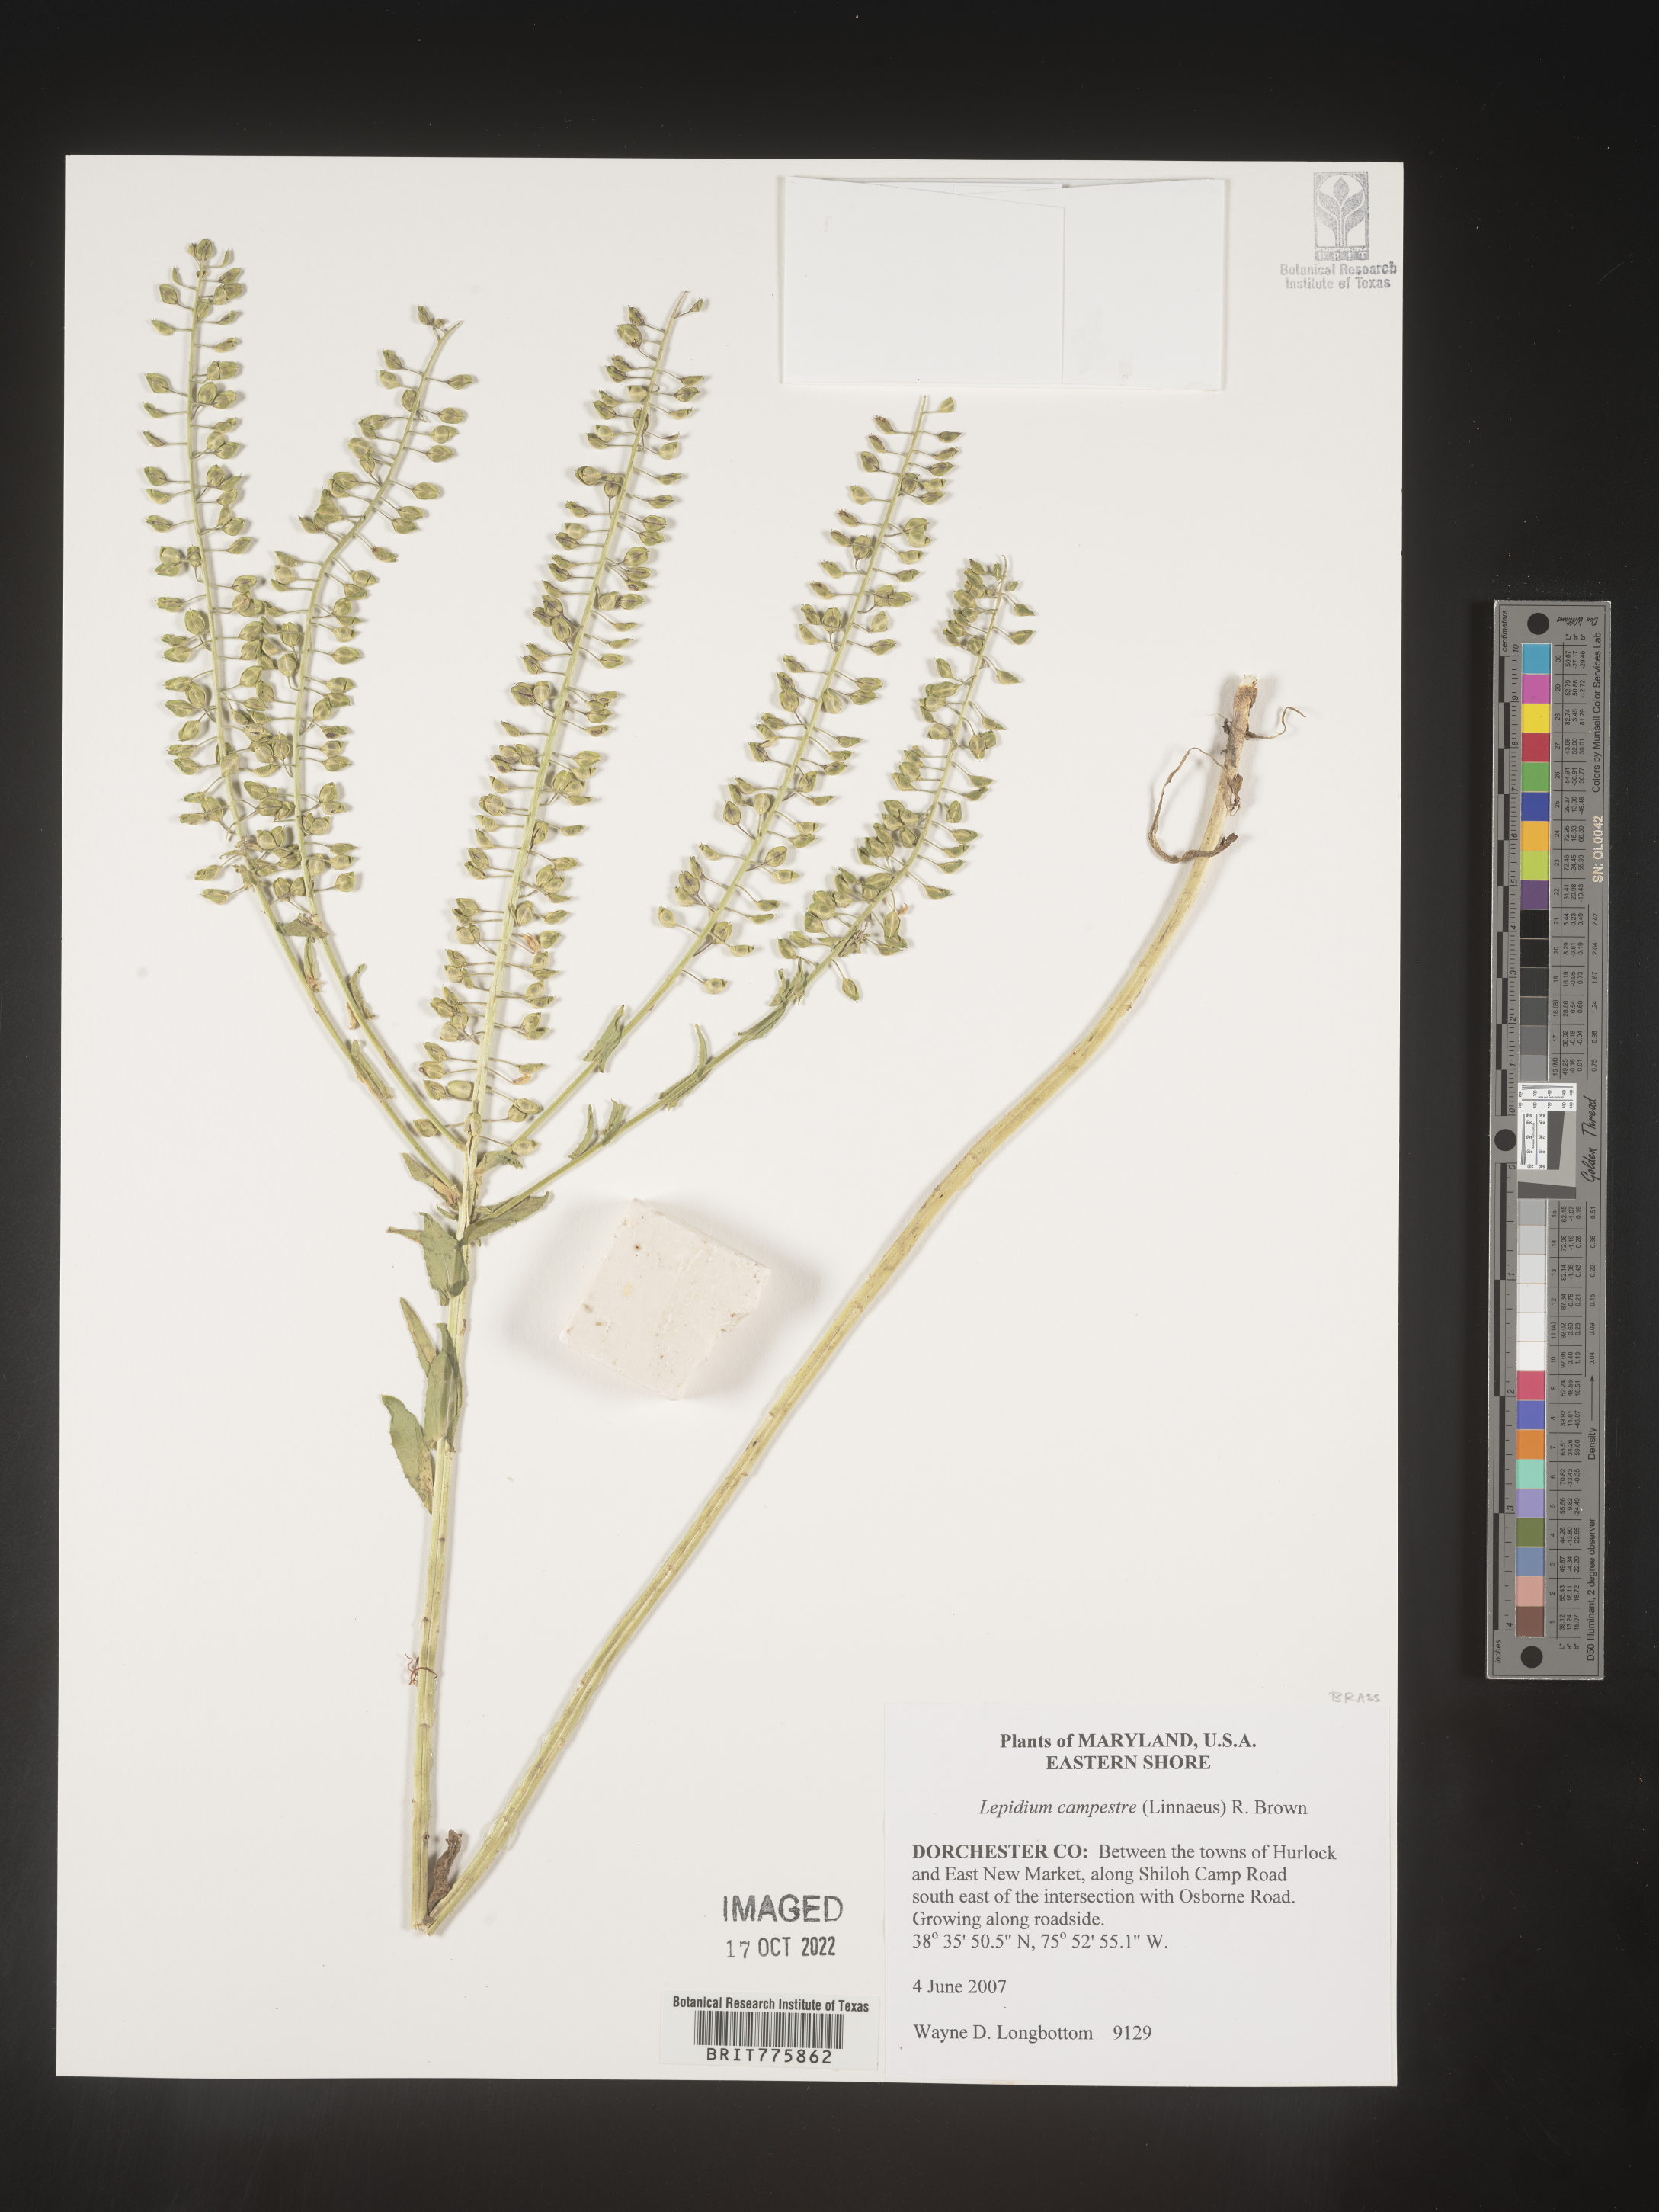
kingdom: Plantae
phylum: Tracheophyta
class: Magnoliopsida
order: Brassicales
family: Brassicaceae
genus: Lepidium
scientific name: Lepidium campestre
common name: Field pepperwort
